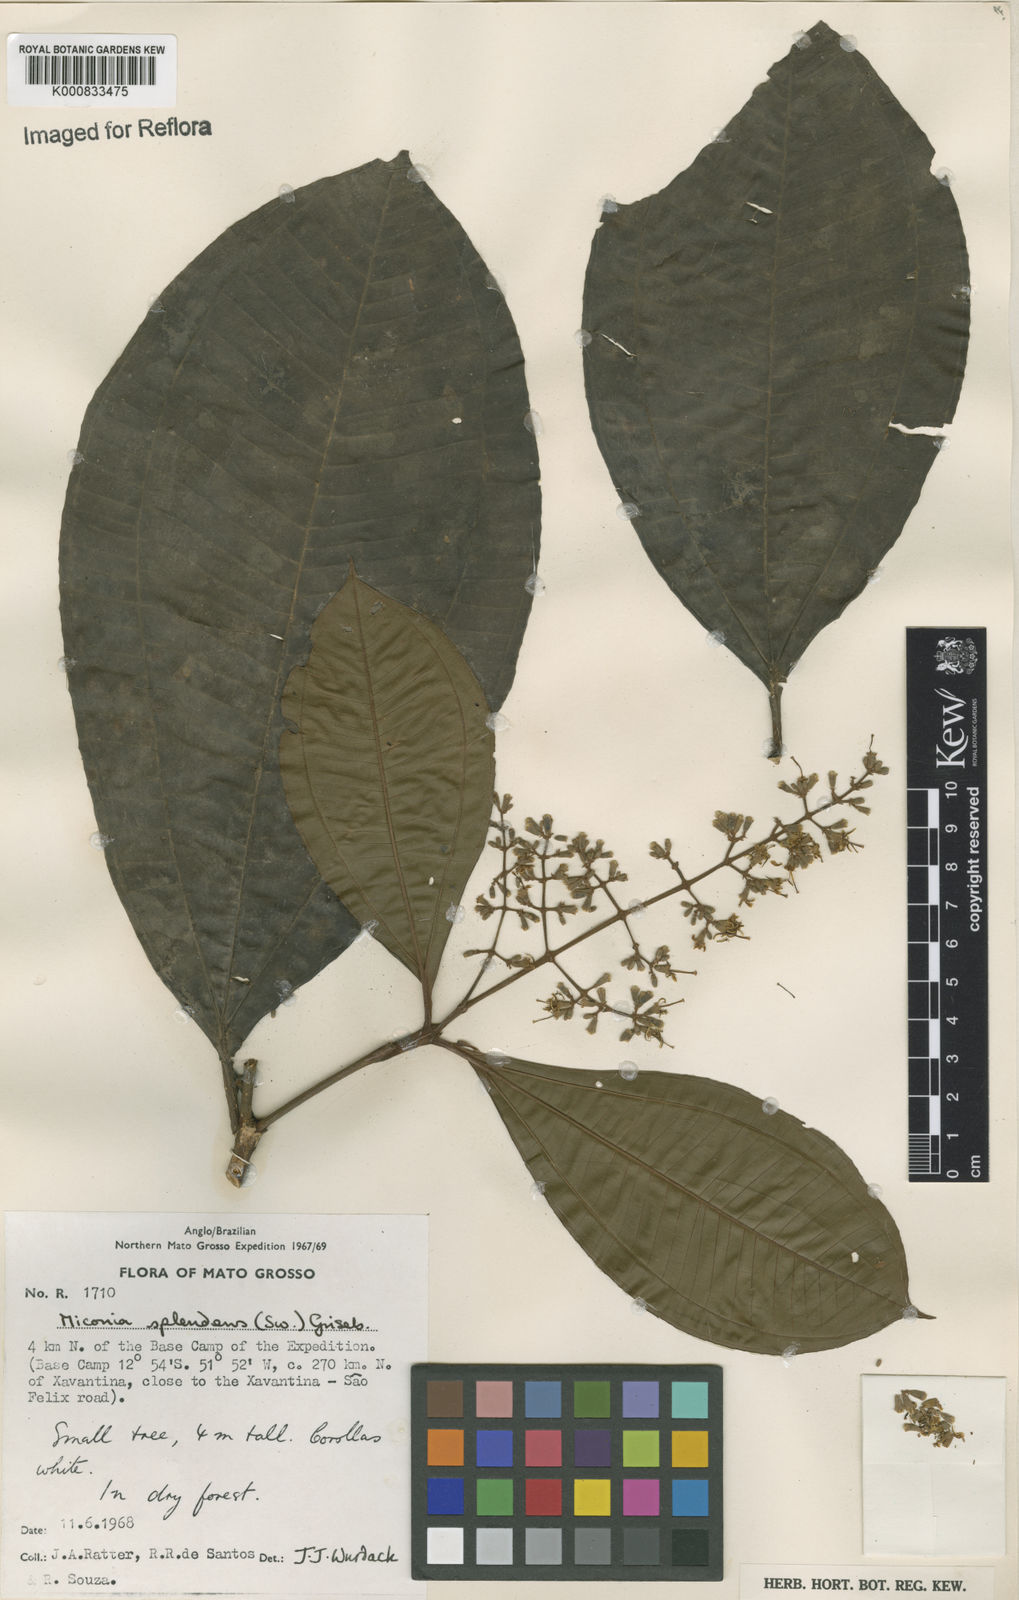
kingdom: Plantae
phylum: Tracheophyta
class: Magnoliopsida
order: Myrtales
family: Melastomataceae
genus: Miconia
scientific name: Miconia splendens
